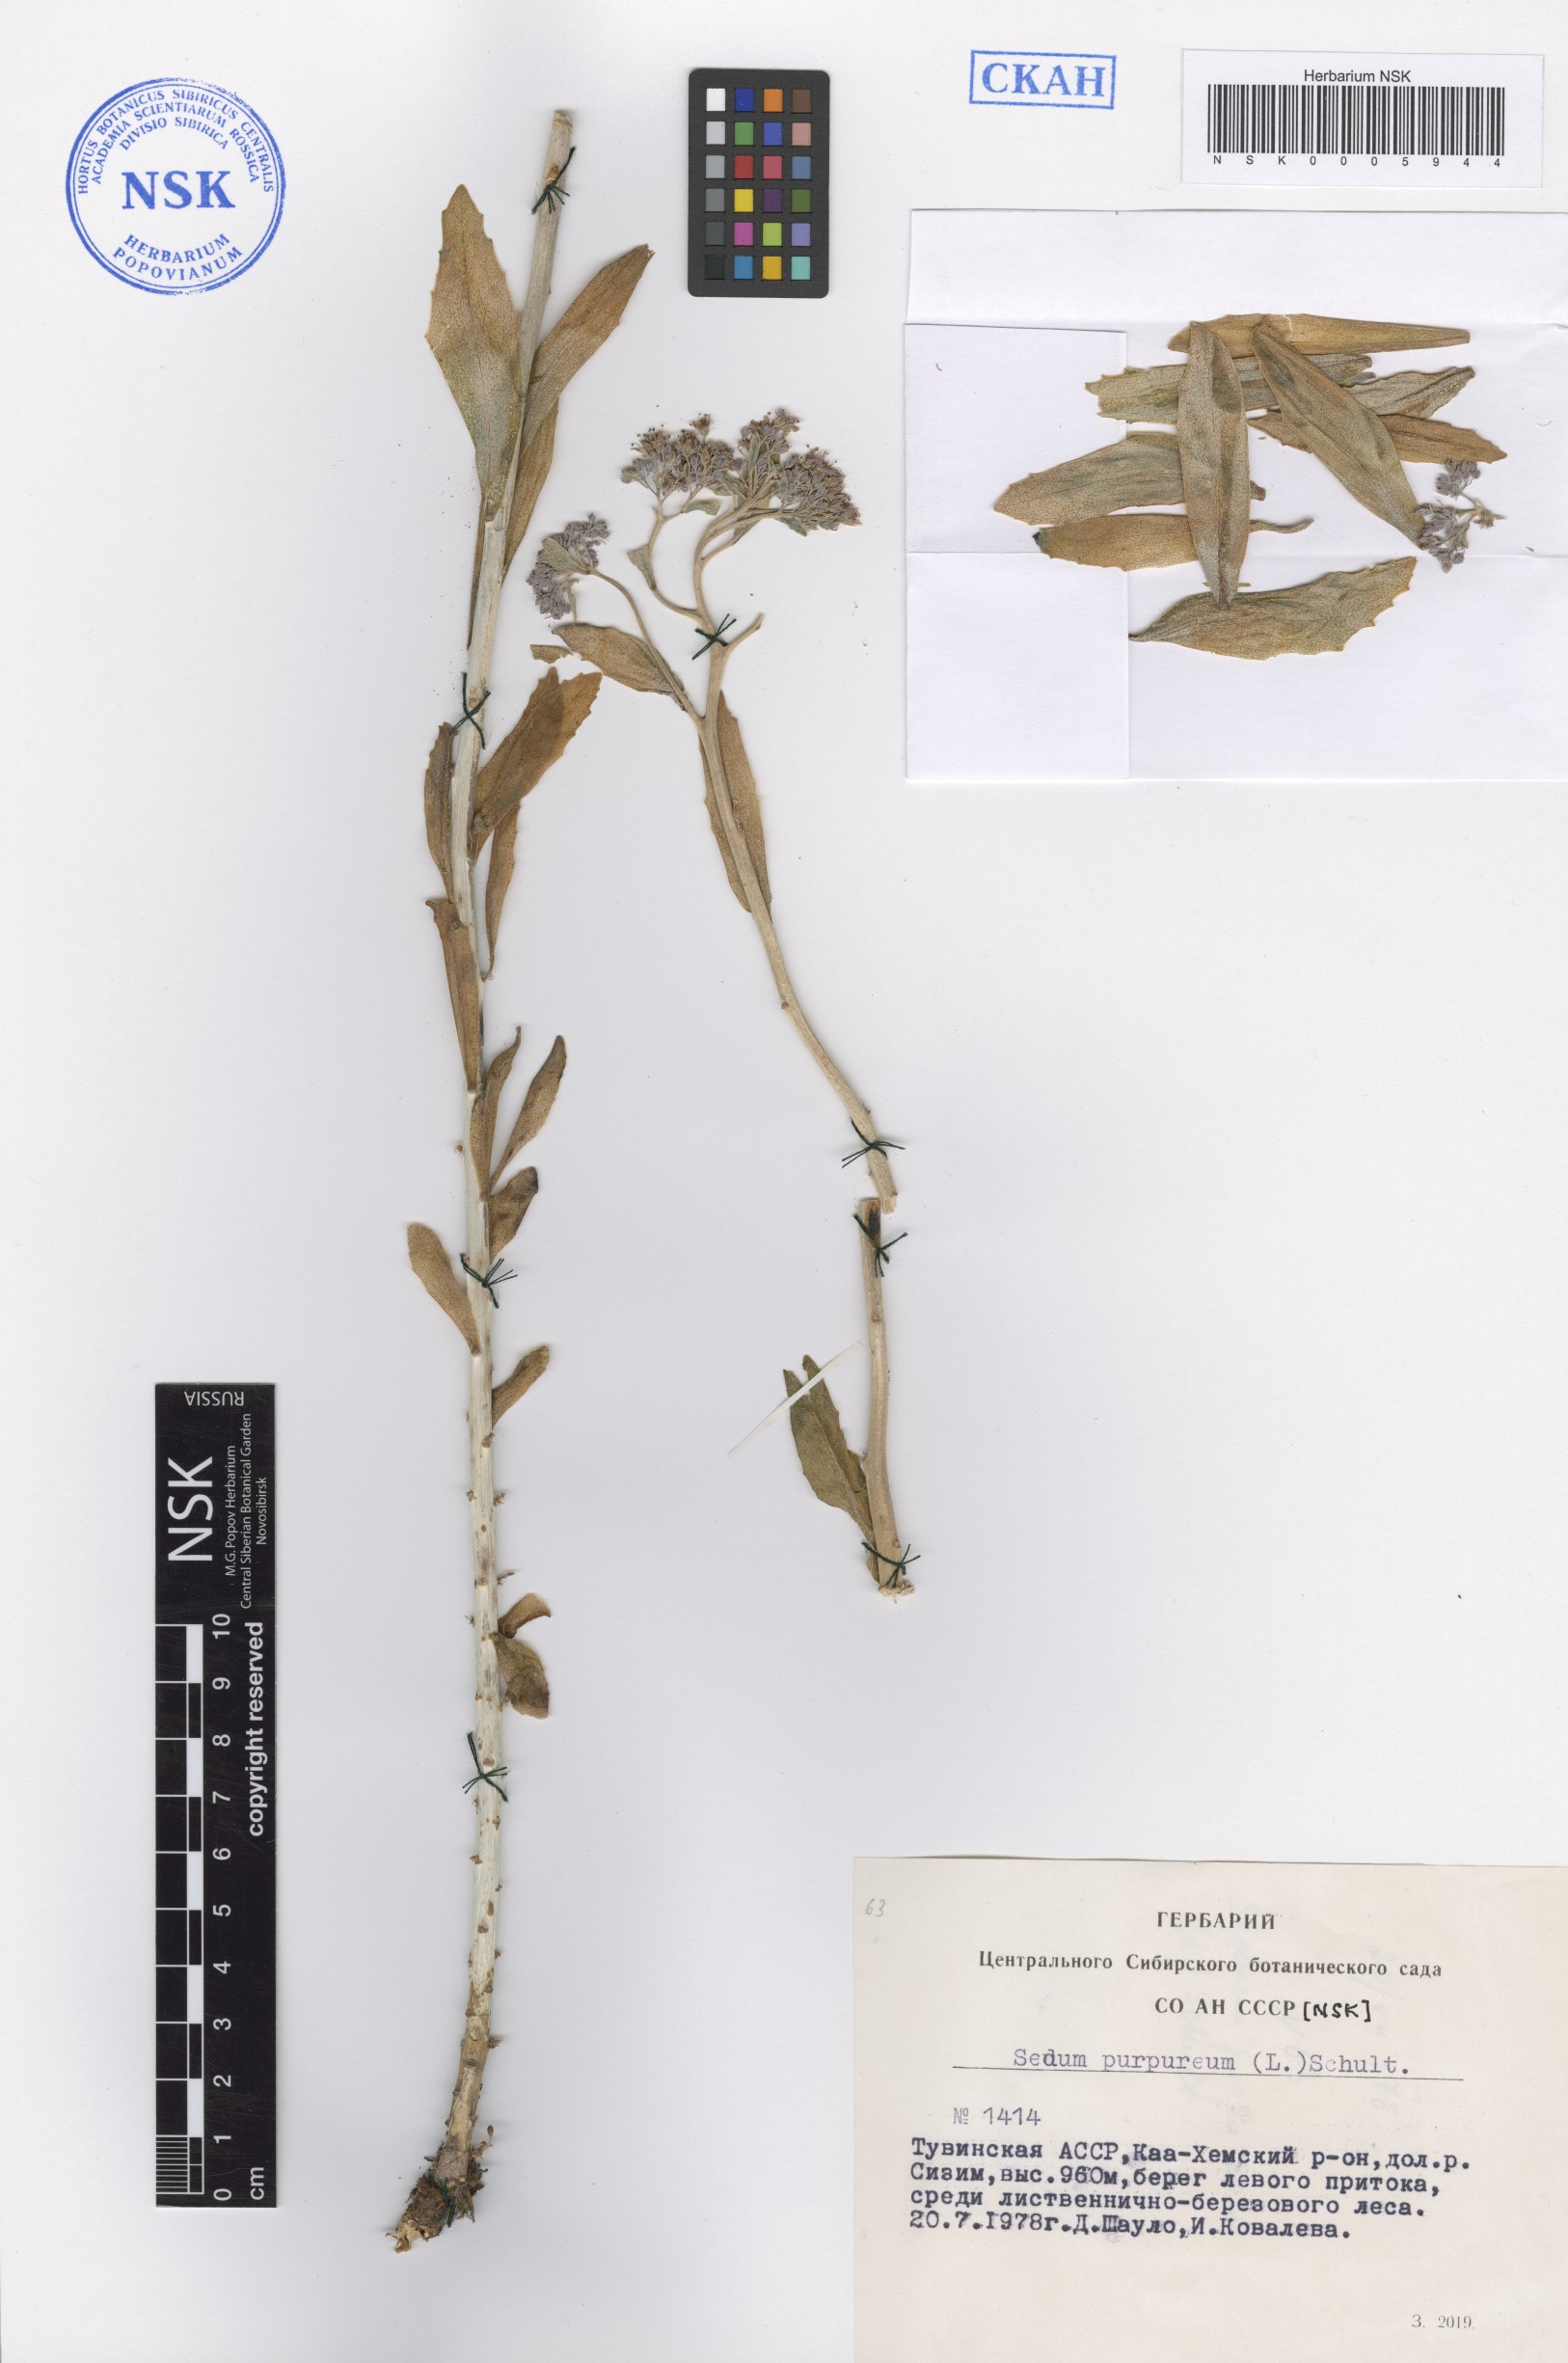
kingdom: Plantae
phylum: Tracheophyta
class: Magnoliopsida
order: Saxifragales
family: Crassulaceae
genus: Hylotelephium
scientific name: Hylotelephium telephium
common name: Live-forever
